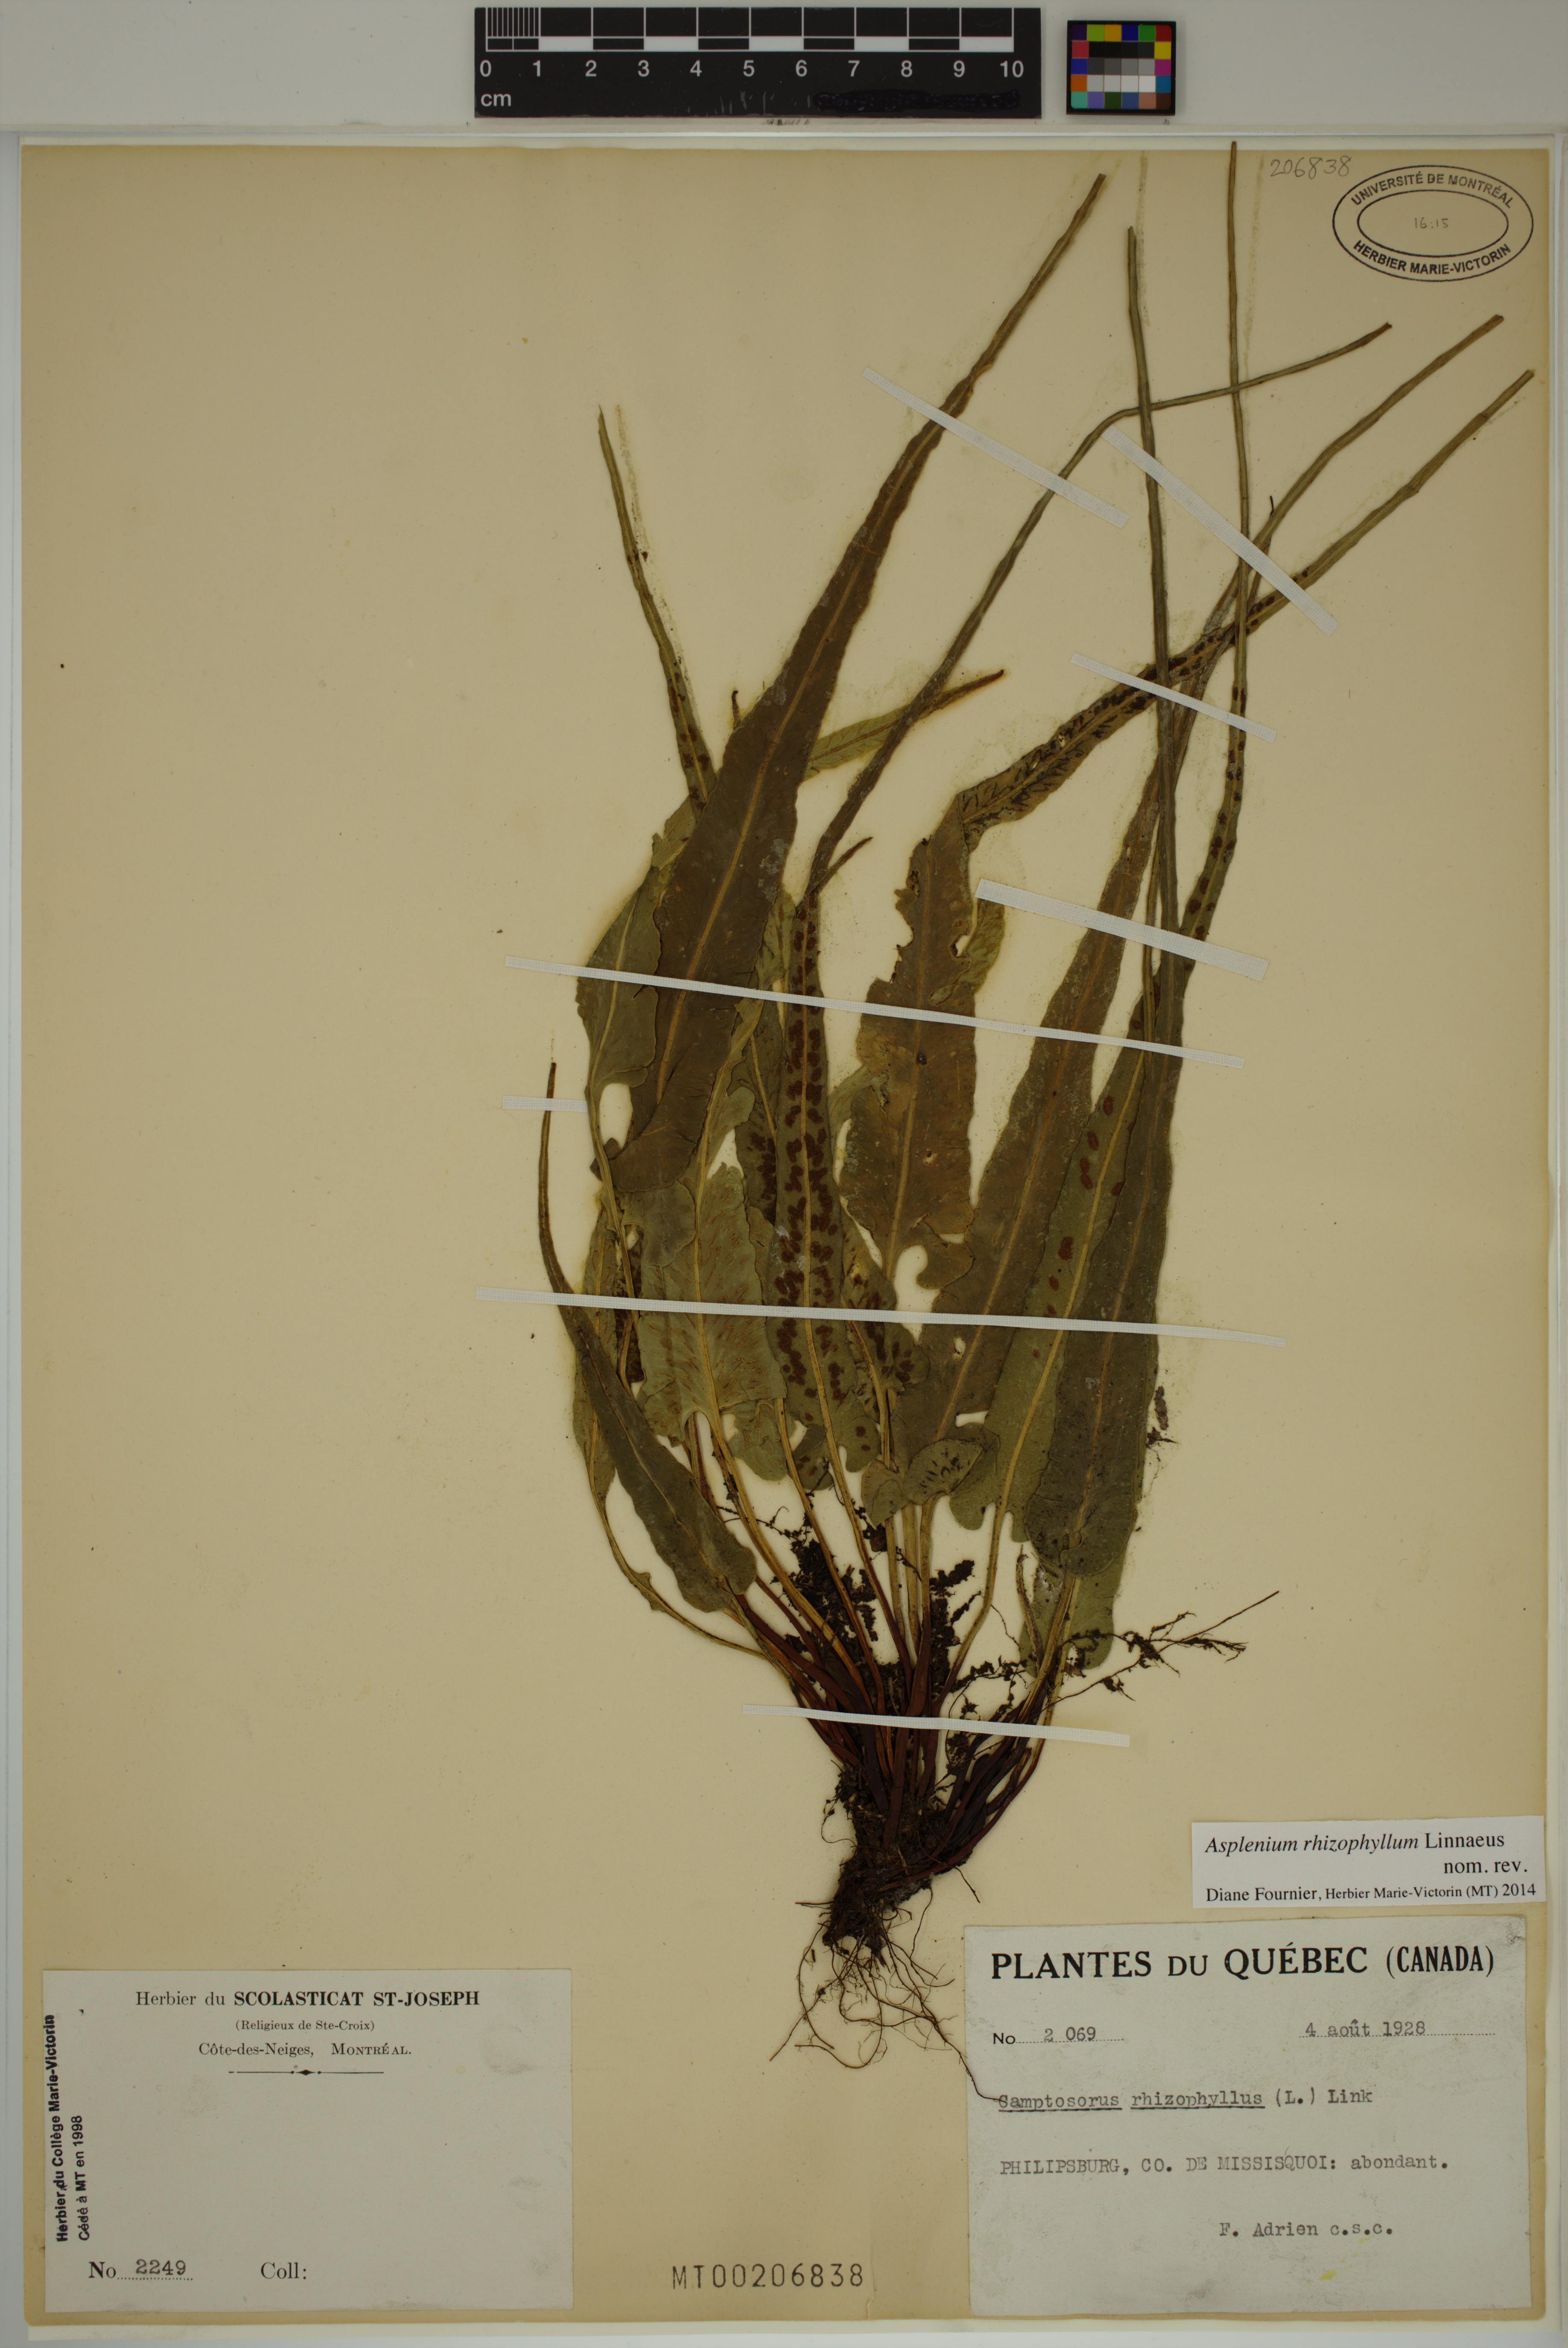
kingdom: Plantae
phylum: Tracheophyta
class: Polypodiopsida
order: Polypodiales
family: Aspleniaceae
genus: Asplenium
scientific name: Asplenium rhizophyllum
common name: Walking fern
